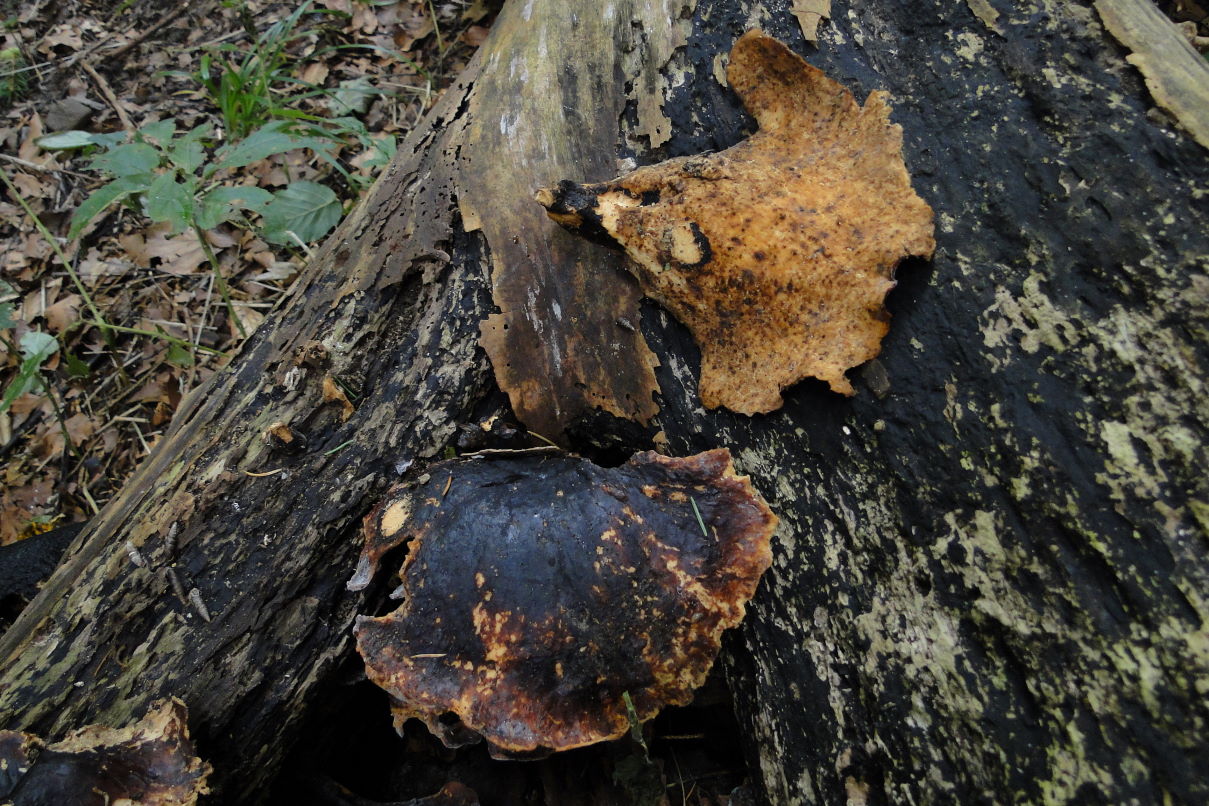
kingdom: Fungi
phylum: Basidiomycota
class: Agaricomycetes
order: Polyporales
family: Polyporaceae
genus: Picipes
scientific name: Picipes badius
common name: kastaniebrun stilkporesvamp
